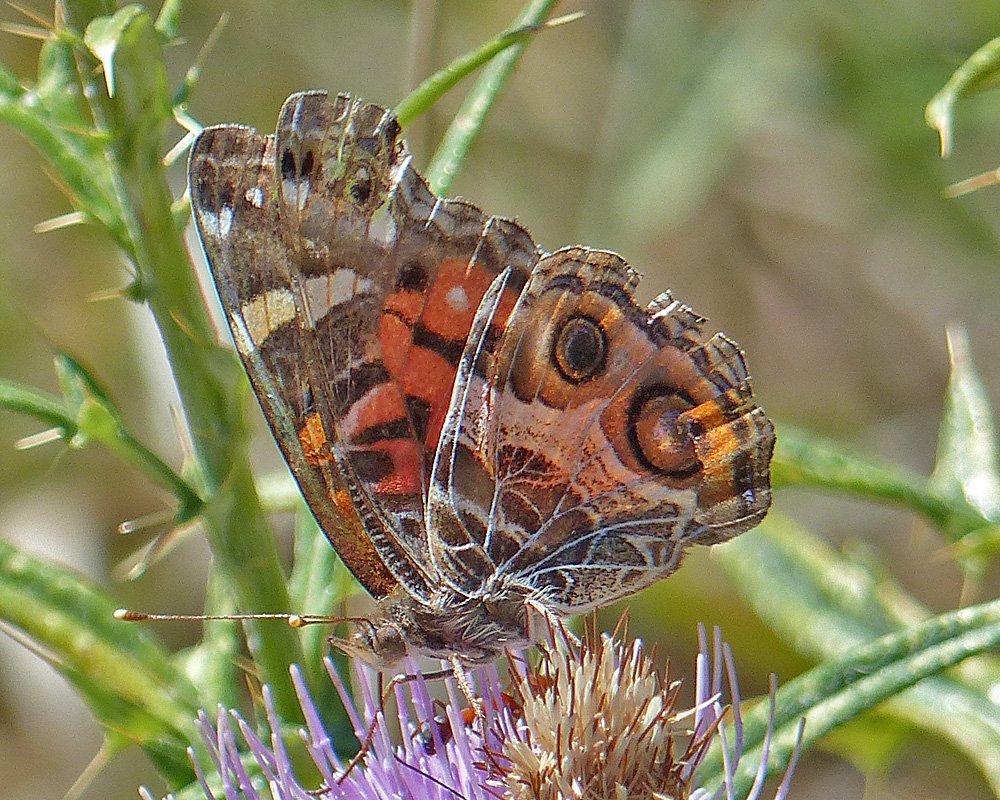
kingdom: Animalia
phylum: Arthropoda
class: Insecta
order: Lepidoptera
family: Nymphalidae
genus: Vanessa
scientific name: Vanessa virginiensis
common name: American Lady
